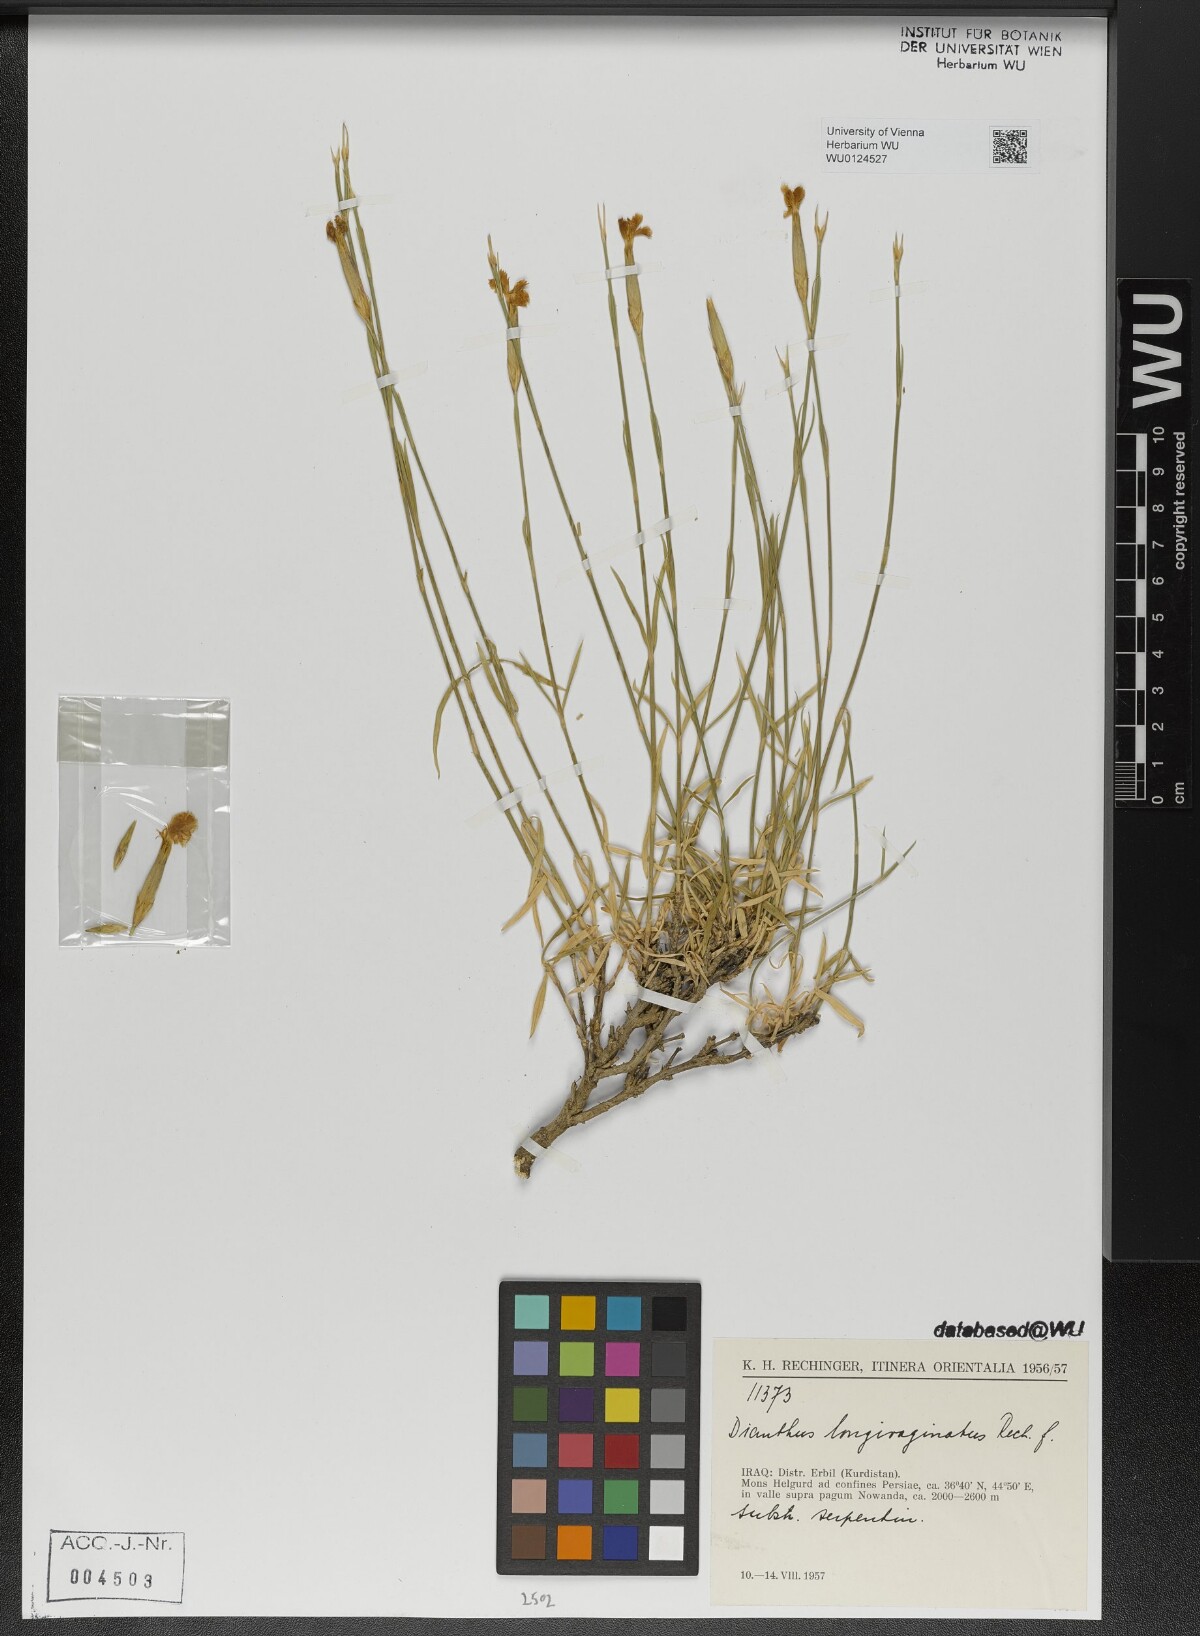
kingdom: Plantae
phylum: Tracheophyta
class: Magnoliopsida
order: Caryophyllales
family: Caryophyllaceae
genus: Dianthus
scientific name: Dianthus longivaginatus
